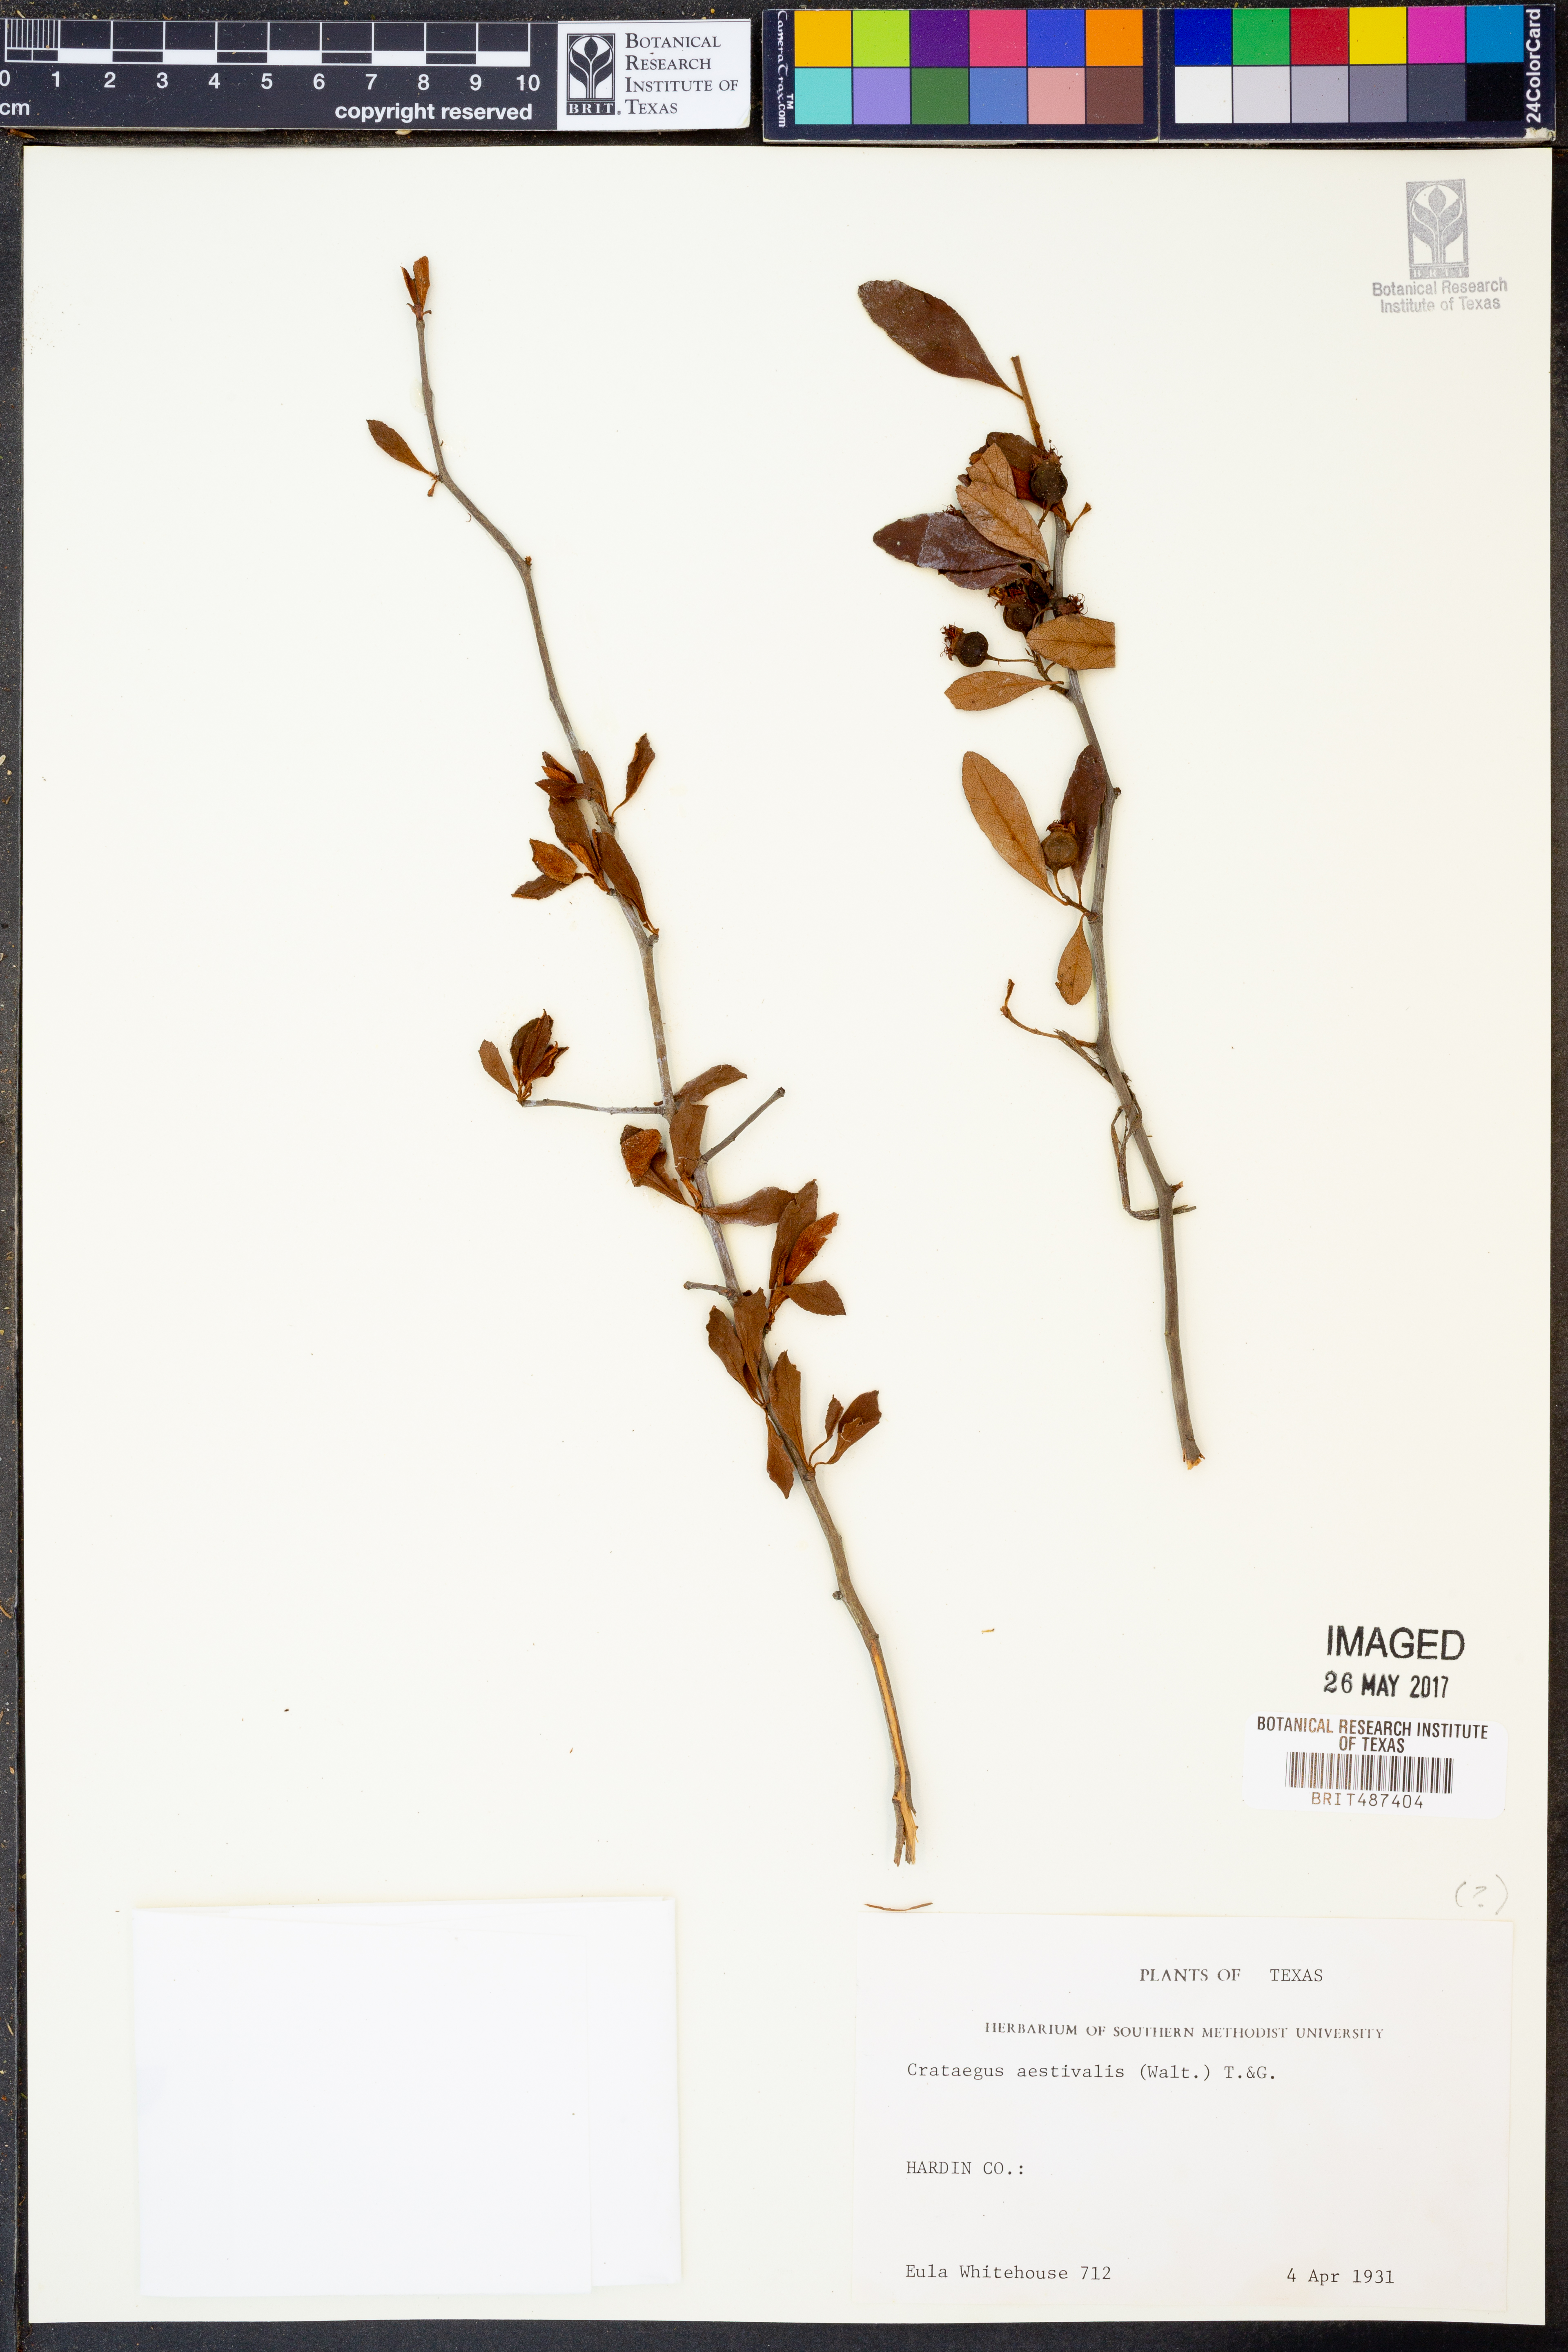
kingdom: Plantae
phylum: Tracheophyta
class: Magnoliopsida
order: Rosales
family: Rosaceae
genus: Crataegus
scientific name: Crataegus aestivalis
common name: Mayhaw
